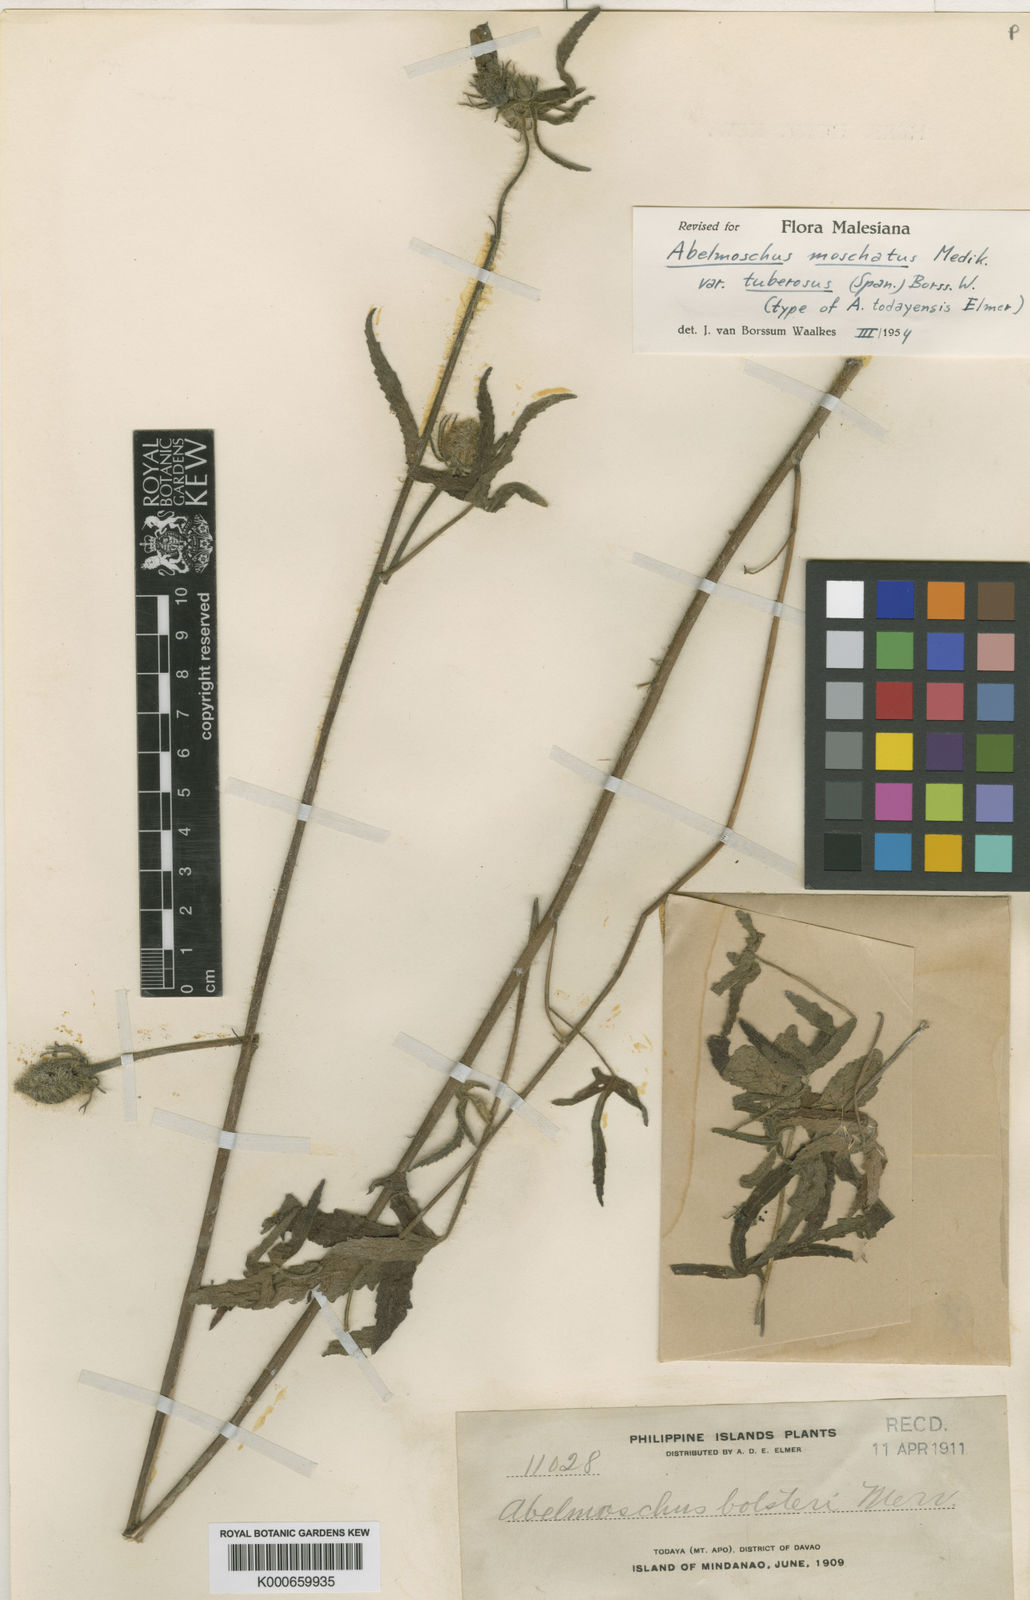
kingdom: Plantae
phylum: Tracheophyta
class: Magnoliopsida
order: Malvales
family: Malvaceae
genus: Abelmoschus
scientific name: Abelmoschus sagittifolius
